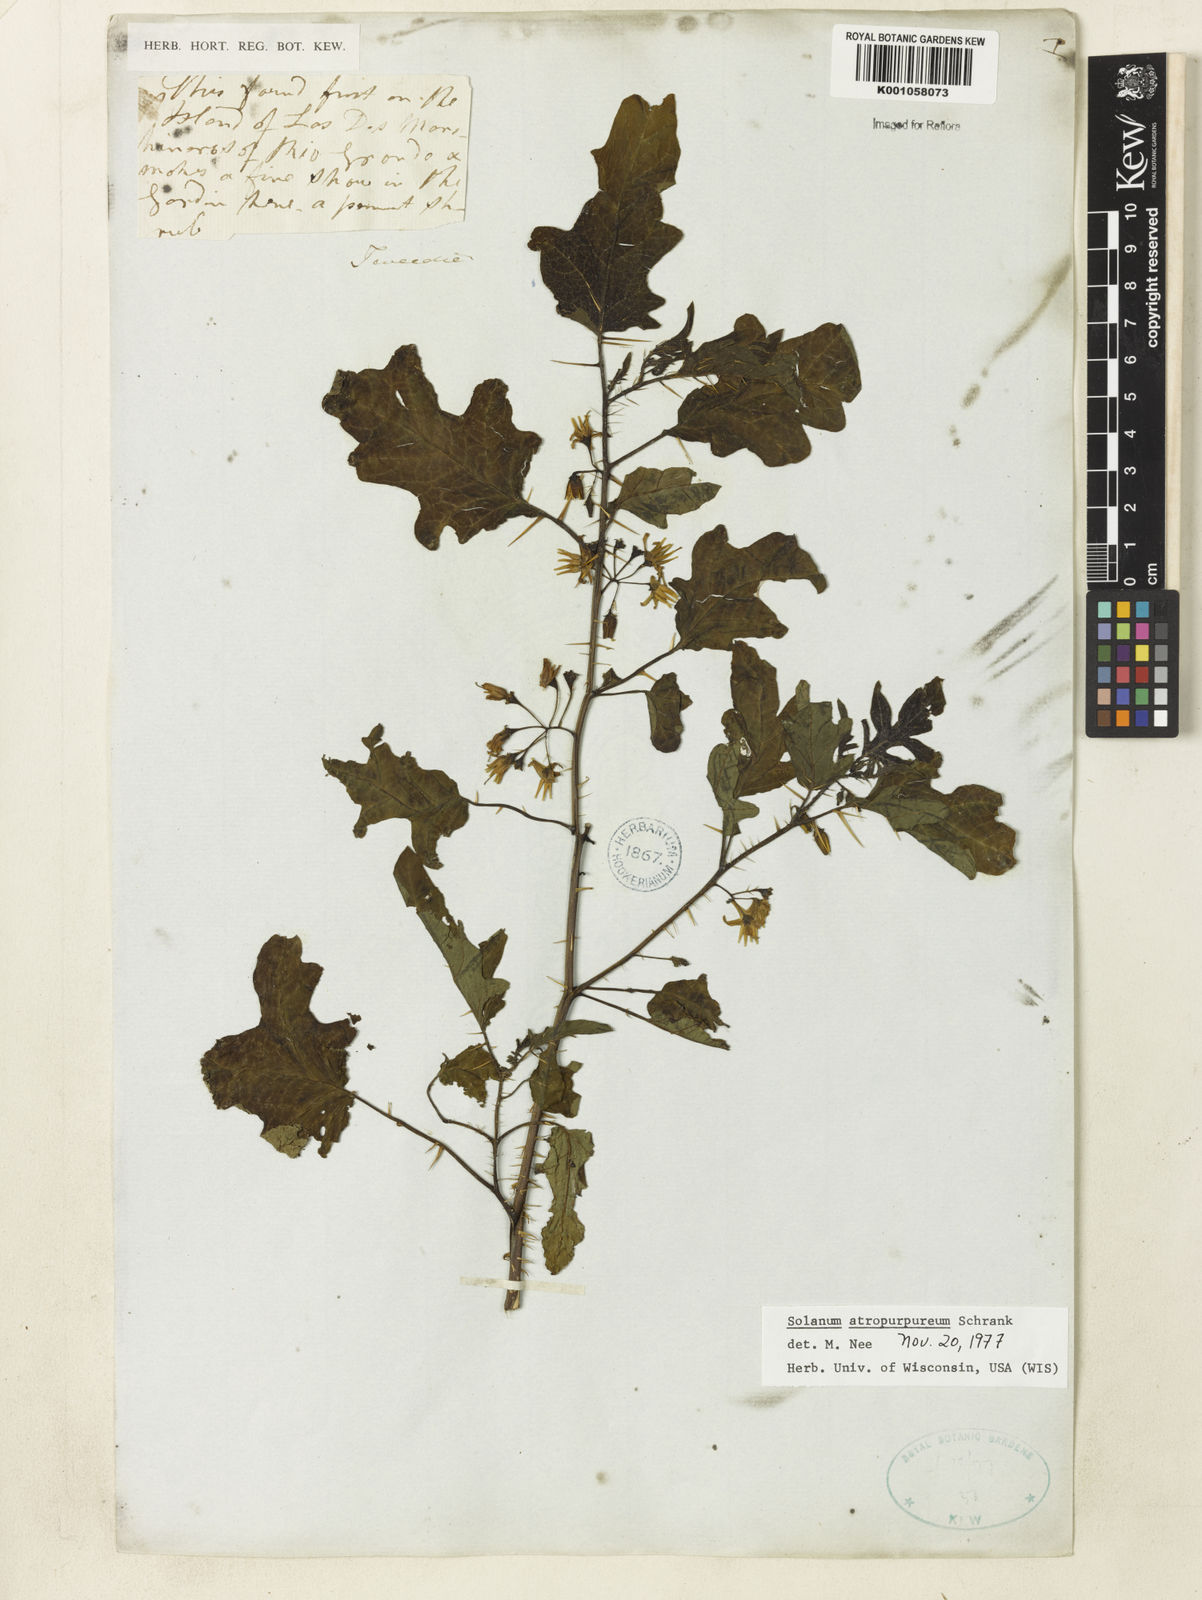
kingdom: Plantae
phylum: Tracheophyta
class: Magnoliopsida
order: Solanales
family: Solanaceae
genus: Solanum
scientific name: Solanum atropurpureum
